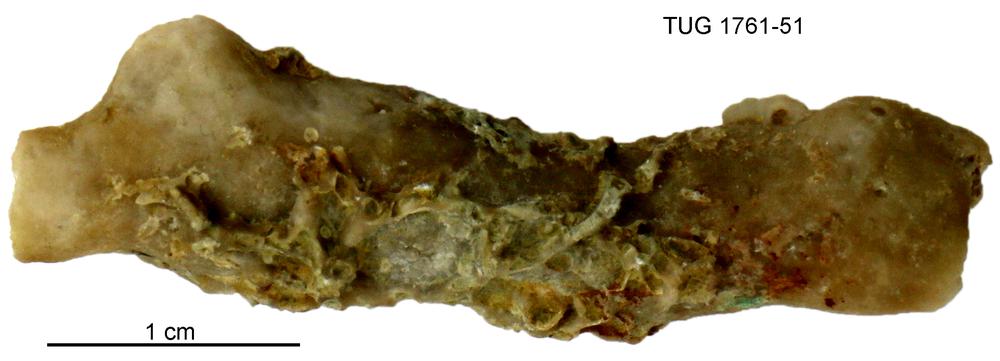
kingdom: Animalia
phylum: Bryozoa
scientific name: Bryozoa
